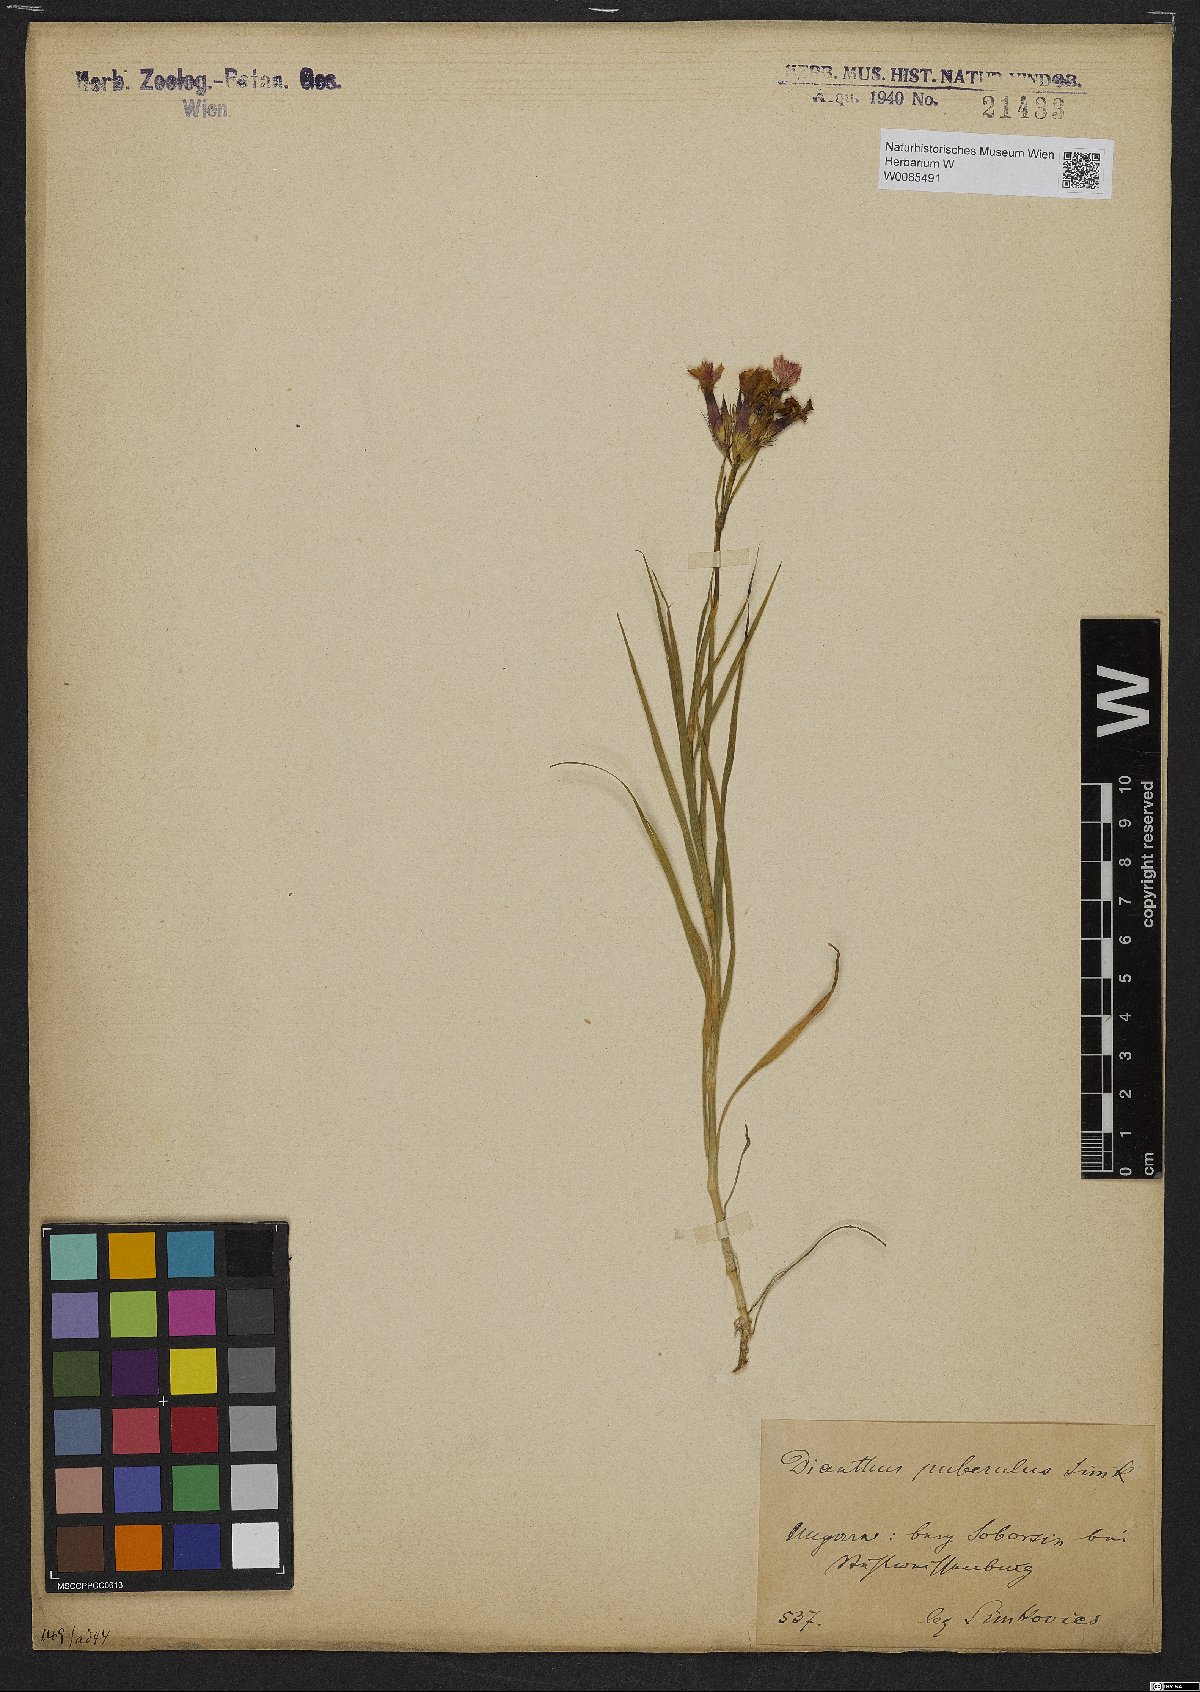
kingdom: Plantae
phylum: Tracheophyta
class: Magnoliopsida
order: Caryophyllales
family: Caryophyllaceae
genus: Dianthus
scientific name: Dianthus carthusianorum
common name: Carthusian pink
